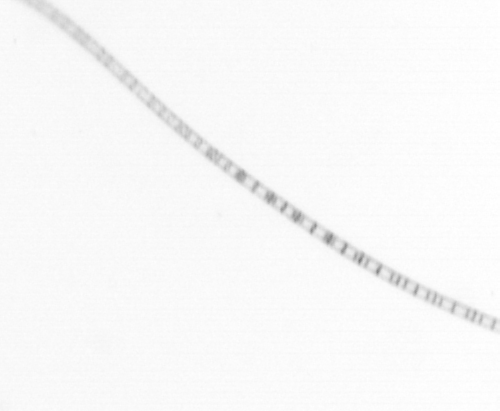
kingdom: Chromista
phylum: Ochrophyta
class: Bacillariophyceae
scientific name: Bacillariophyceae
